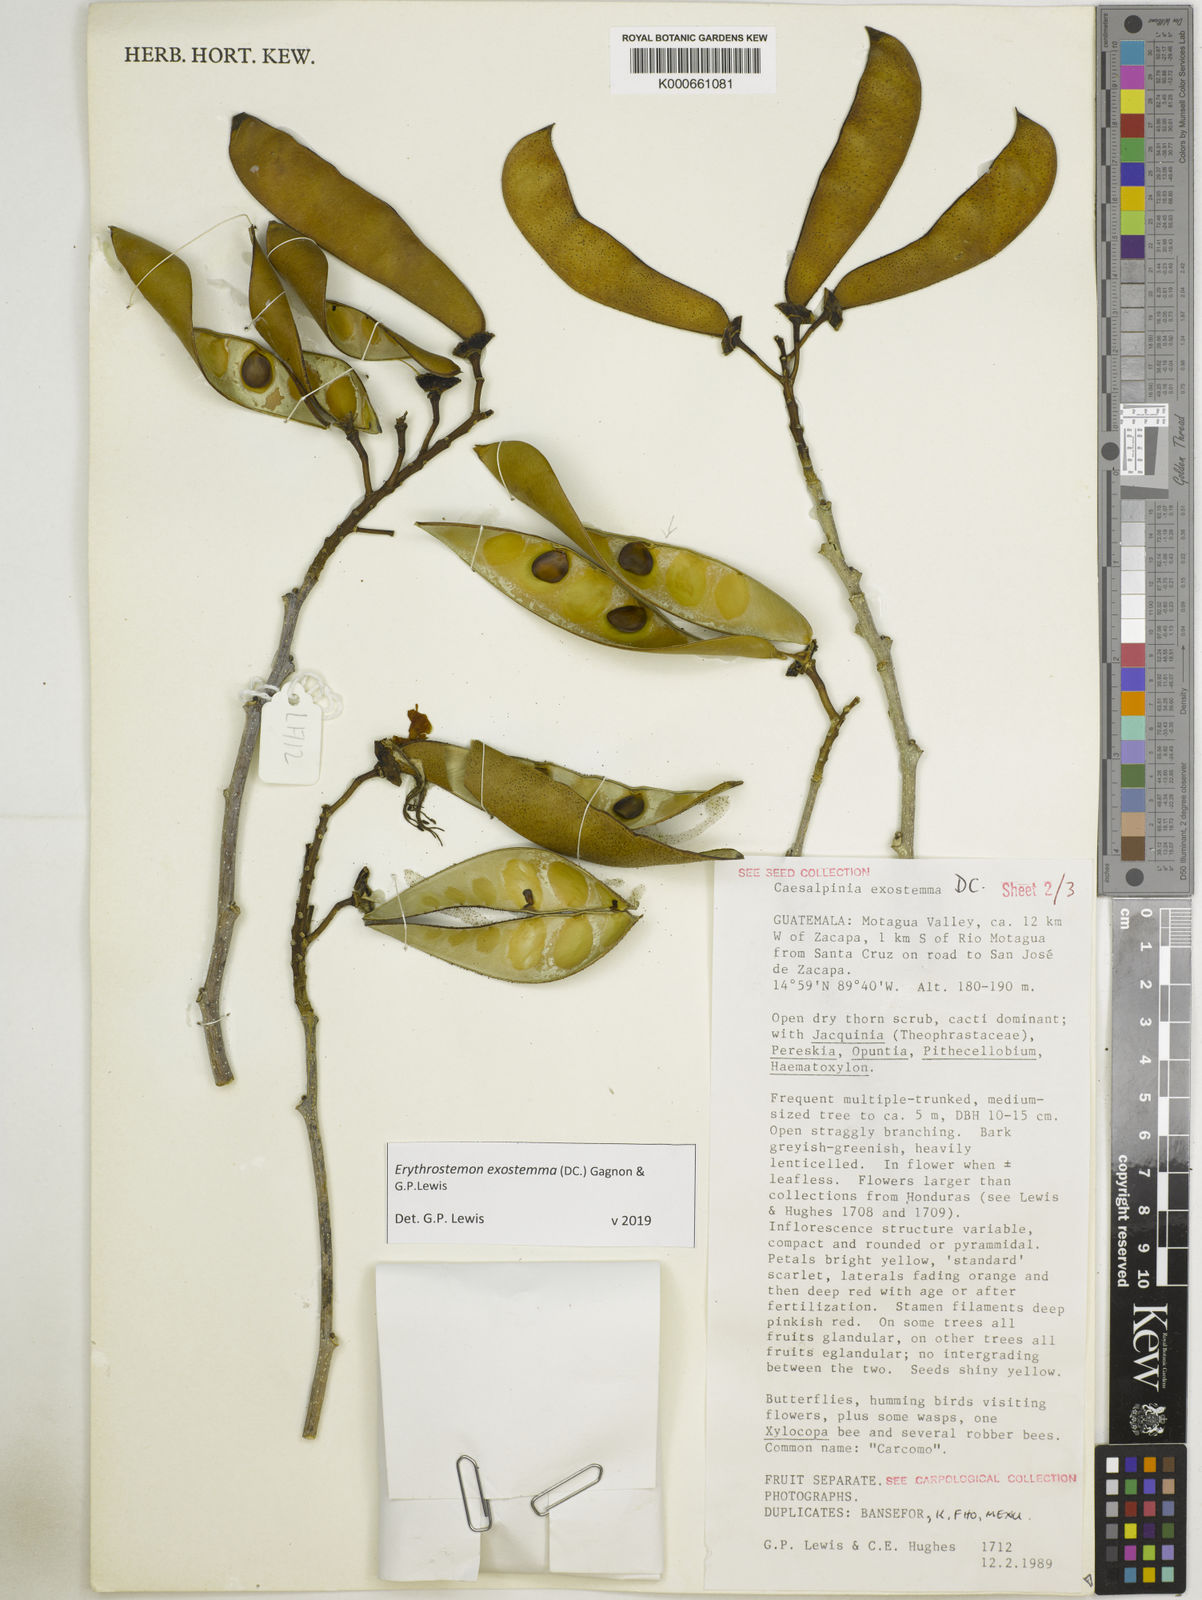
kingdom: Plantae
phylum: Tracheophyta
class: Magnoliopsida
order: Fabales
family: Fabaceae
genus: Erythrostemon
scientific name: Erythrostemon exostemma
